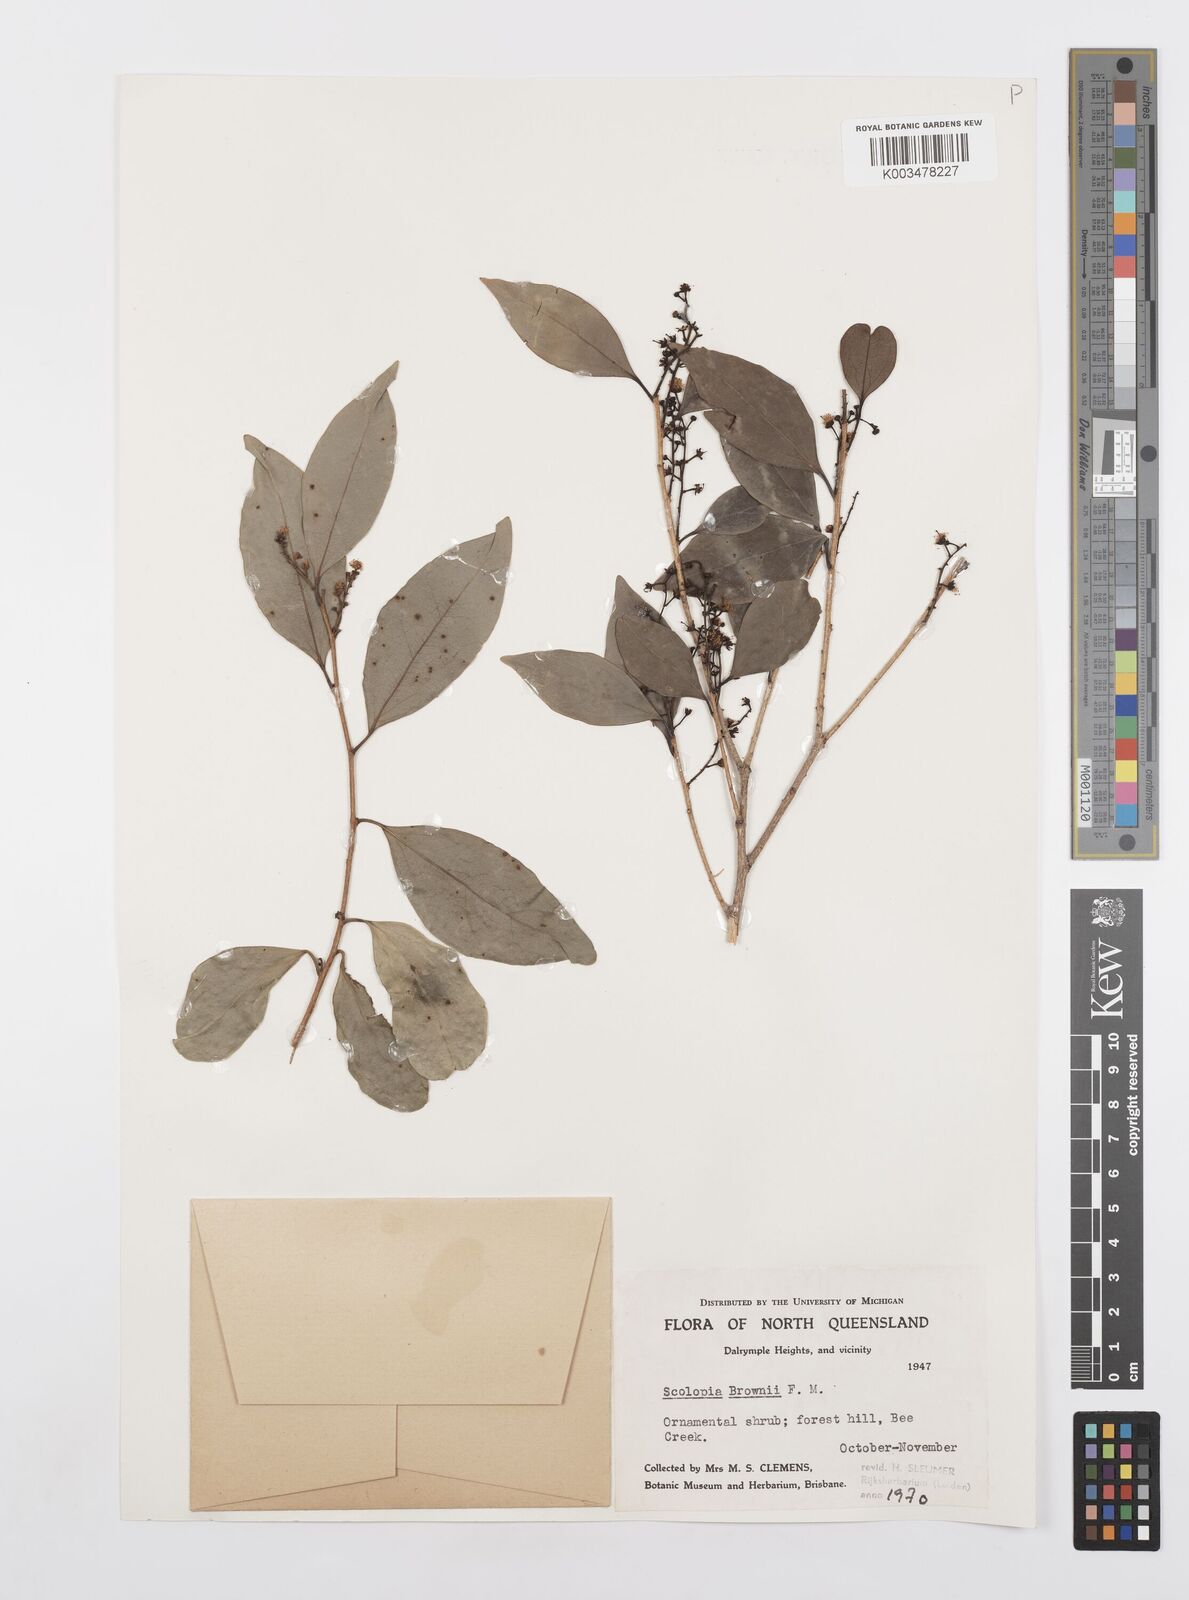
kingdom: Plantae
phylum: Tracheophyta
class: Magnoliopsida
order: Malpighiales
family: Salicaceae
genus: Scolopia
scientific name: Scolopia braunii
